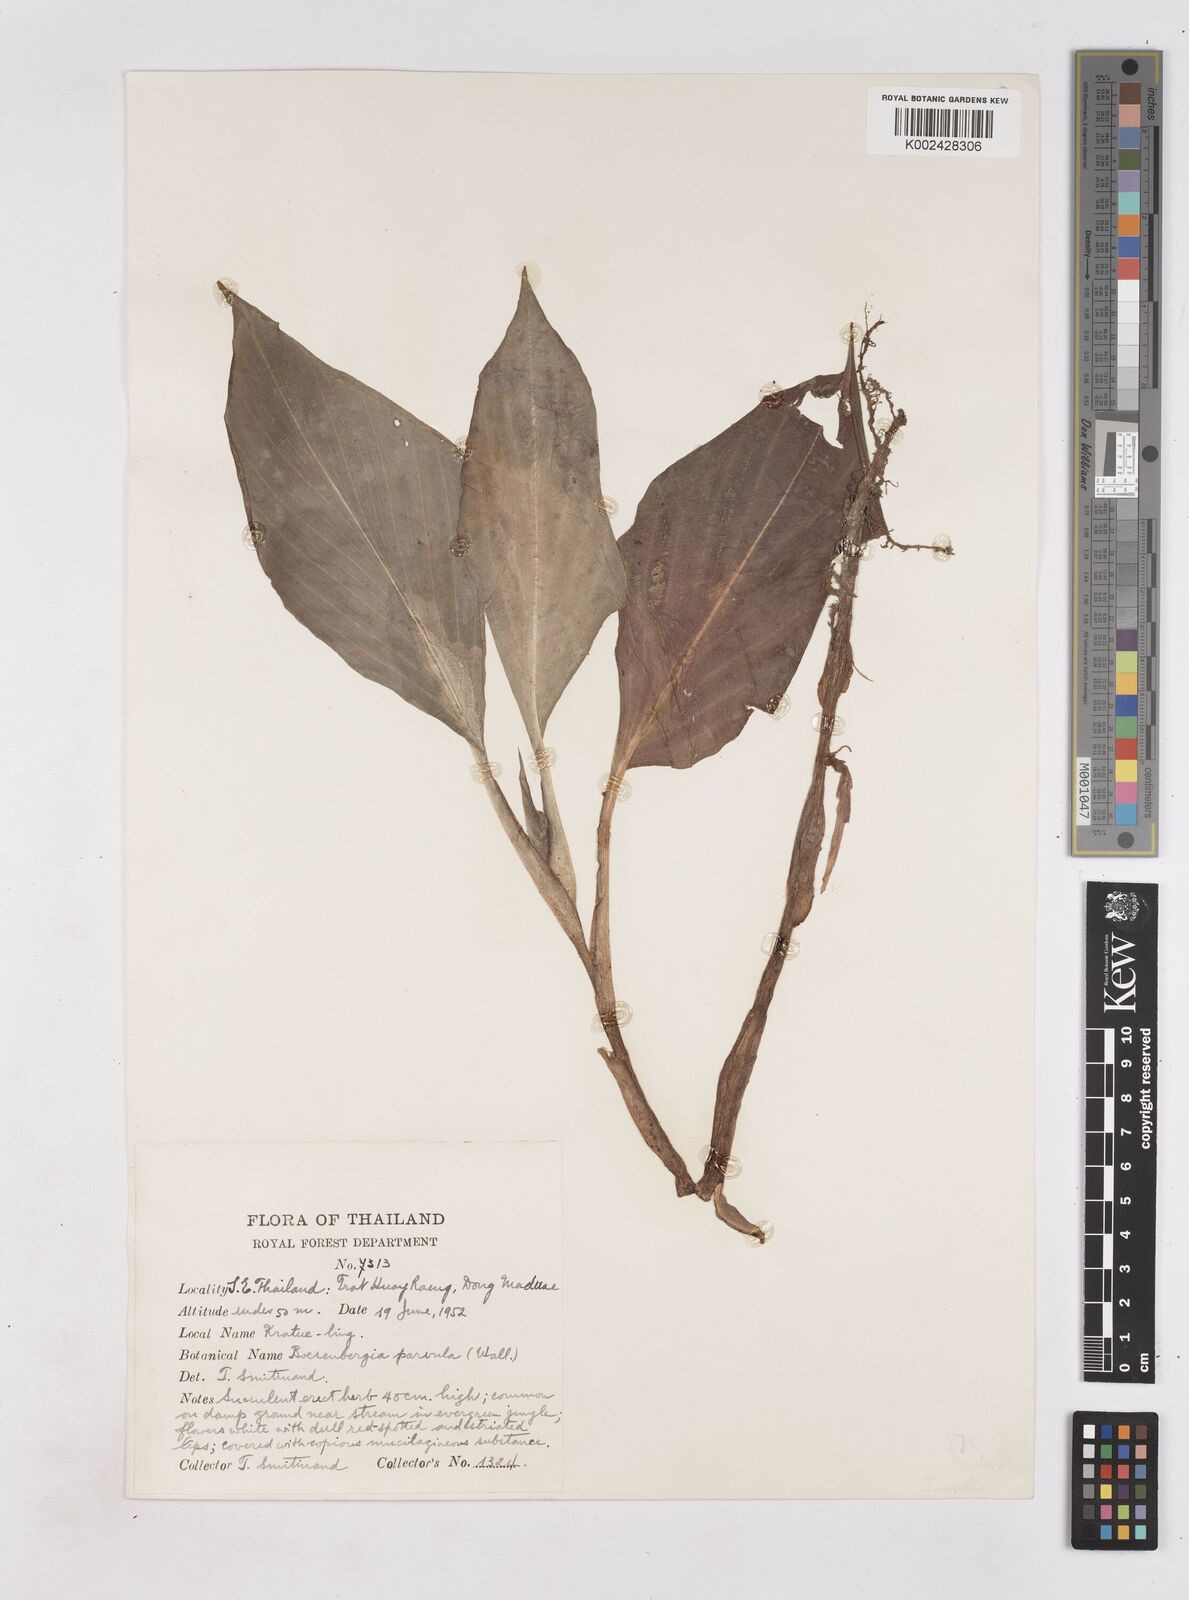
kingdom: Plantae
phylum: Tracheophyta
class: Liliopsida
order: Zingiberales
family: Zingiberaceae
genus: Boesenbergia
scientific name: Boesenbergia parvula
